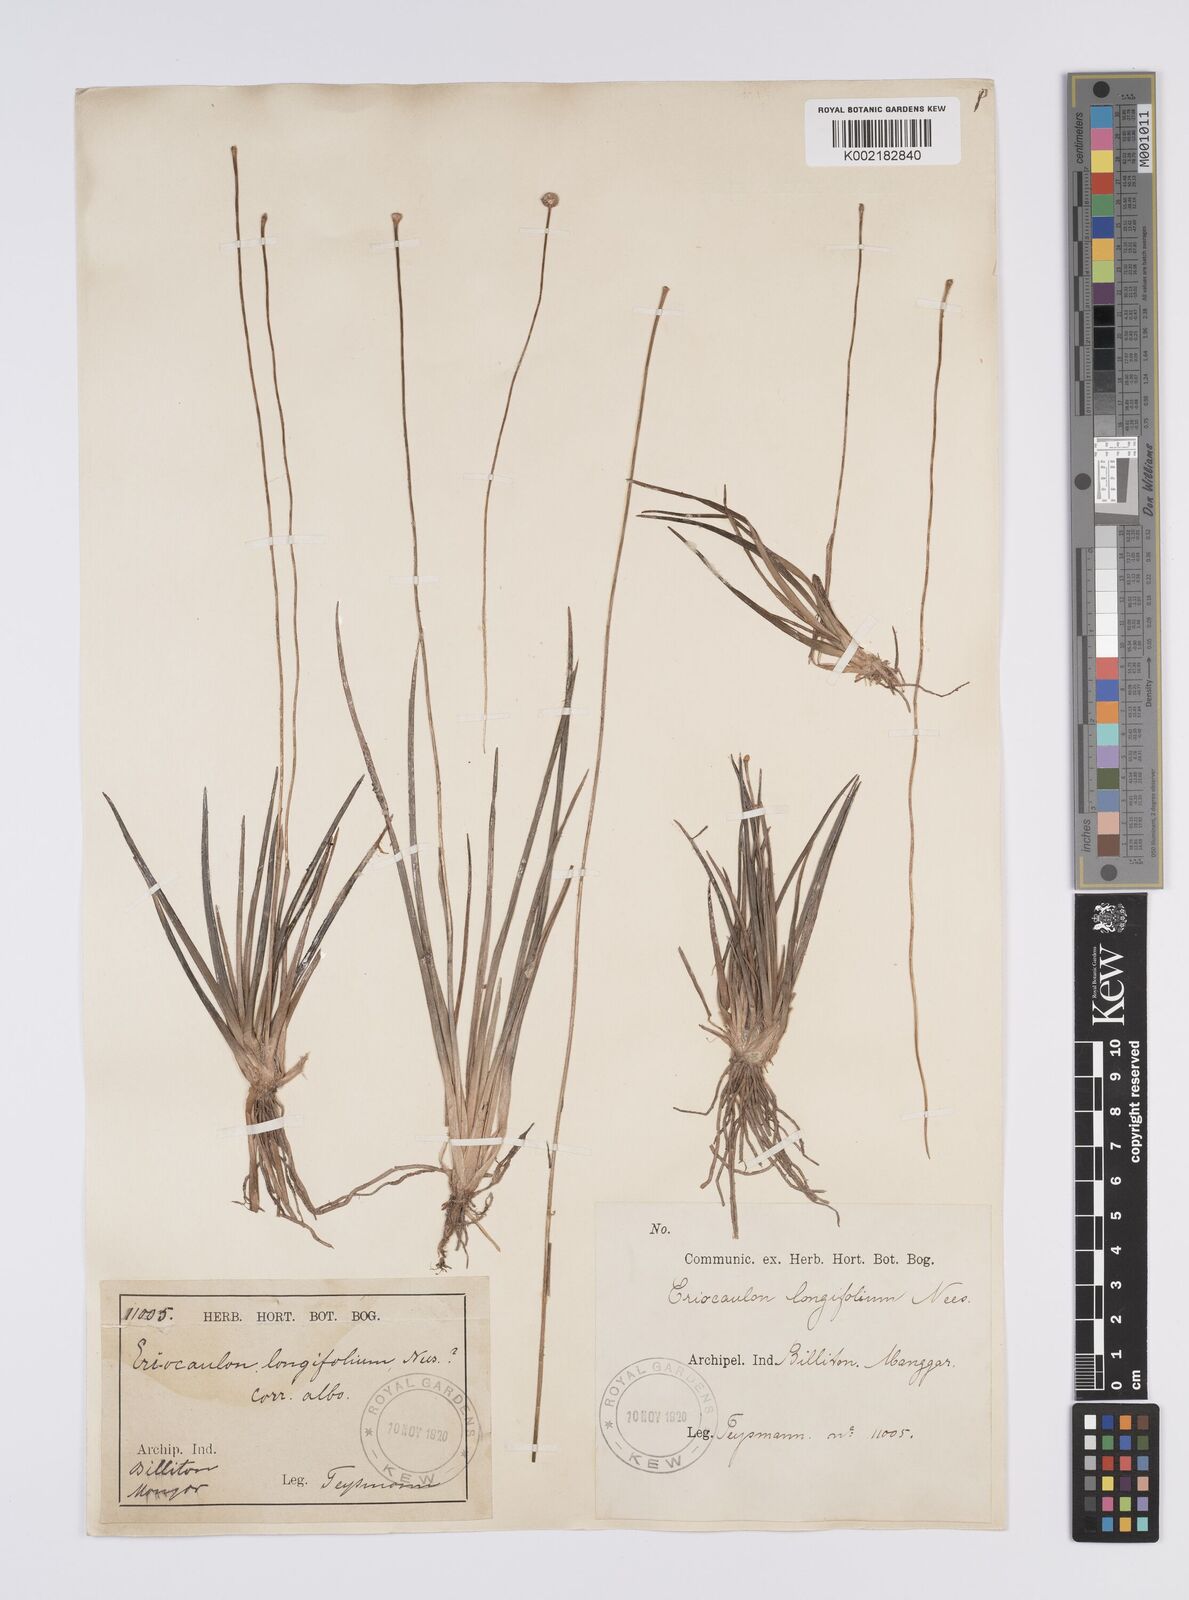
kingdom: Plantae
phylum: Tracheophyta
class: Liliopsida
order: Poales
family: Eriocaulaceae
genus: Eriocaulon
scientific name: Eriocaulon willdenovianum
